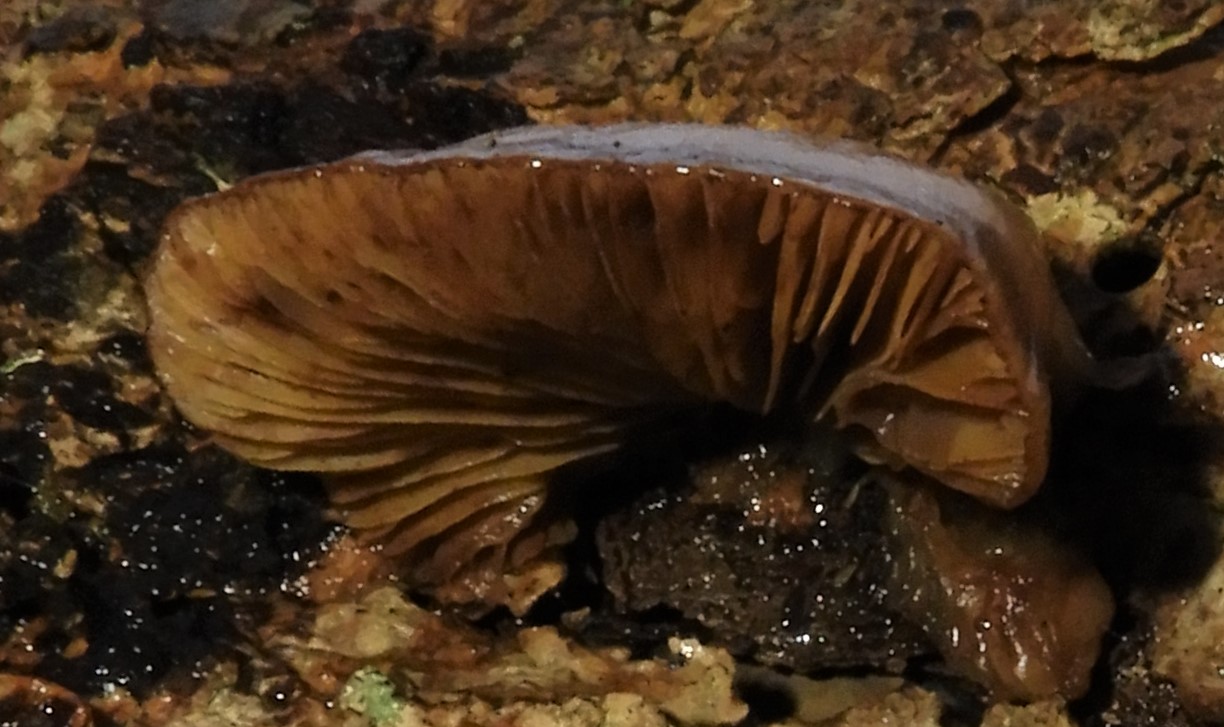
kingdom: Fungi
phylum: Basidiomycota
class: Agaricomycetes
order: Agaricales
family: Crepidotaceae
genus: Crepidotus
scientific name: Crepidotus mollis
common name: blød muslingesvamp
